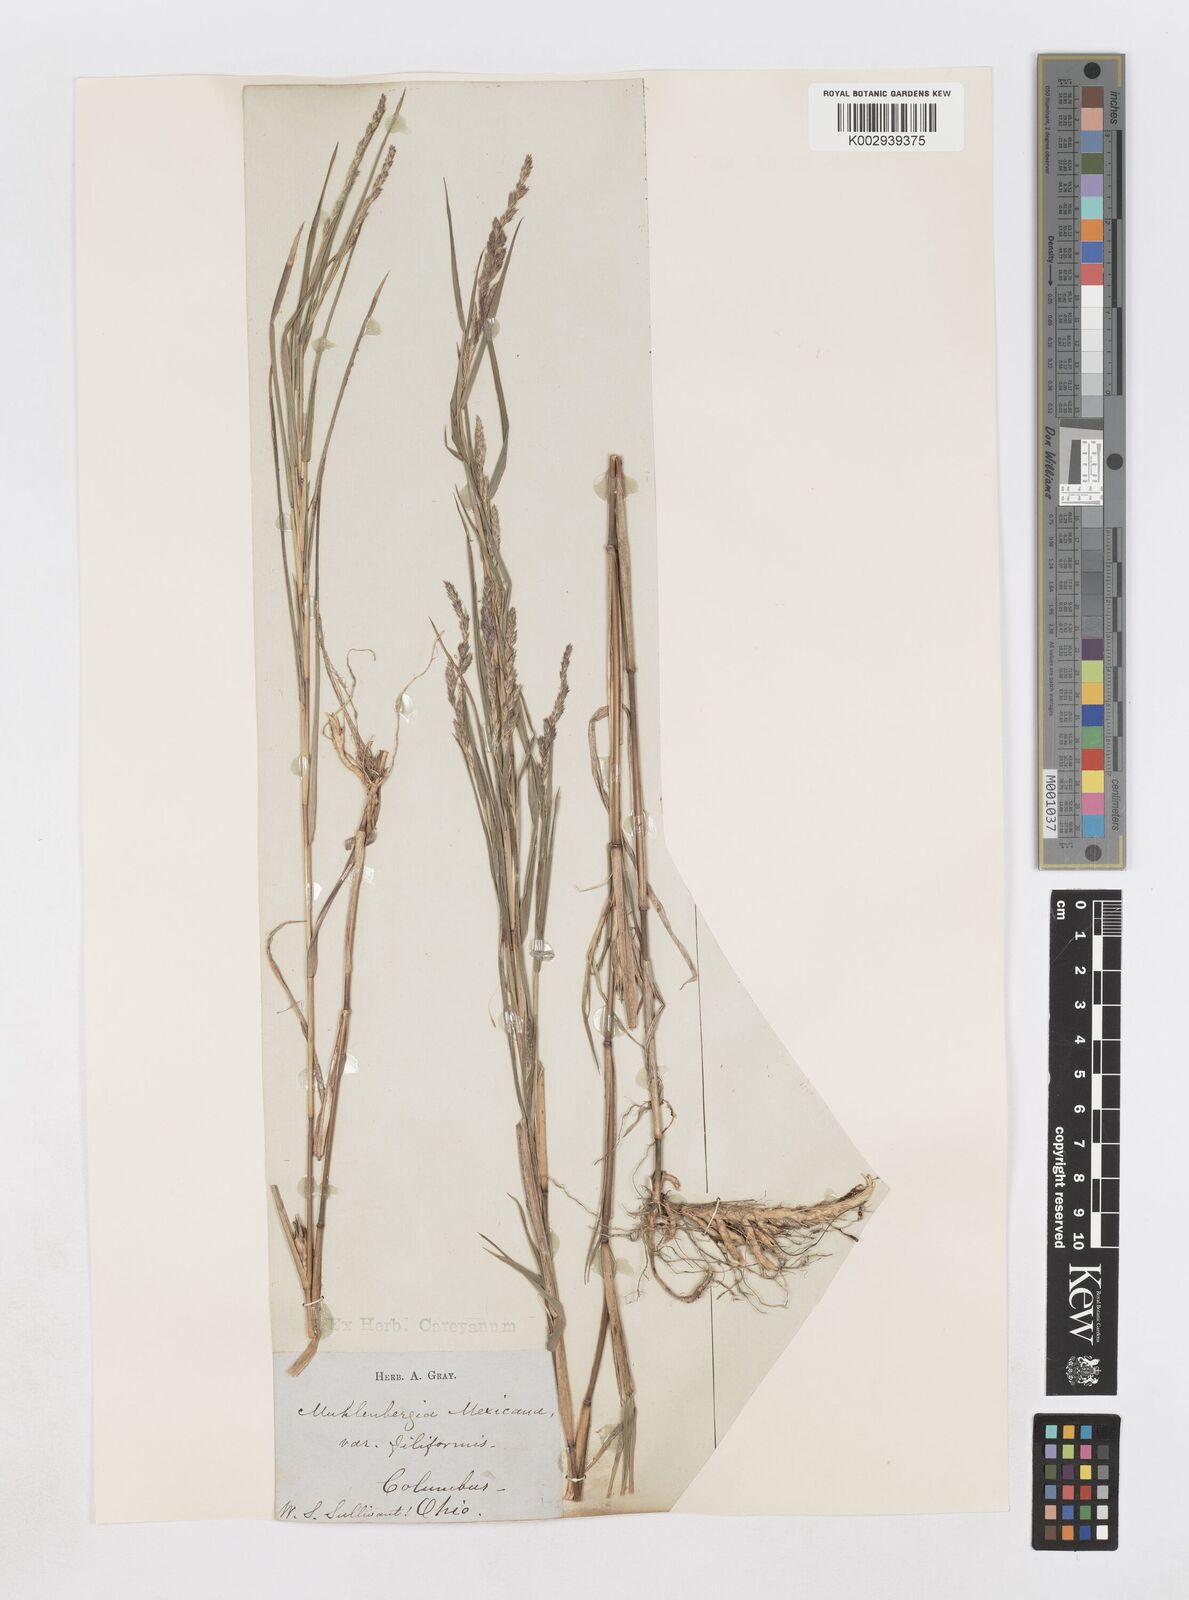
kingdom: Plantae
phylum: Tracheophyta
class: Liliopsida
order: Poales
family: Poaceae
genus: Muhlenbergia
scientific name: Muhlenbergia mexicana
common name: Mexican muhly
